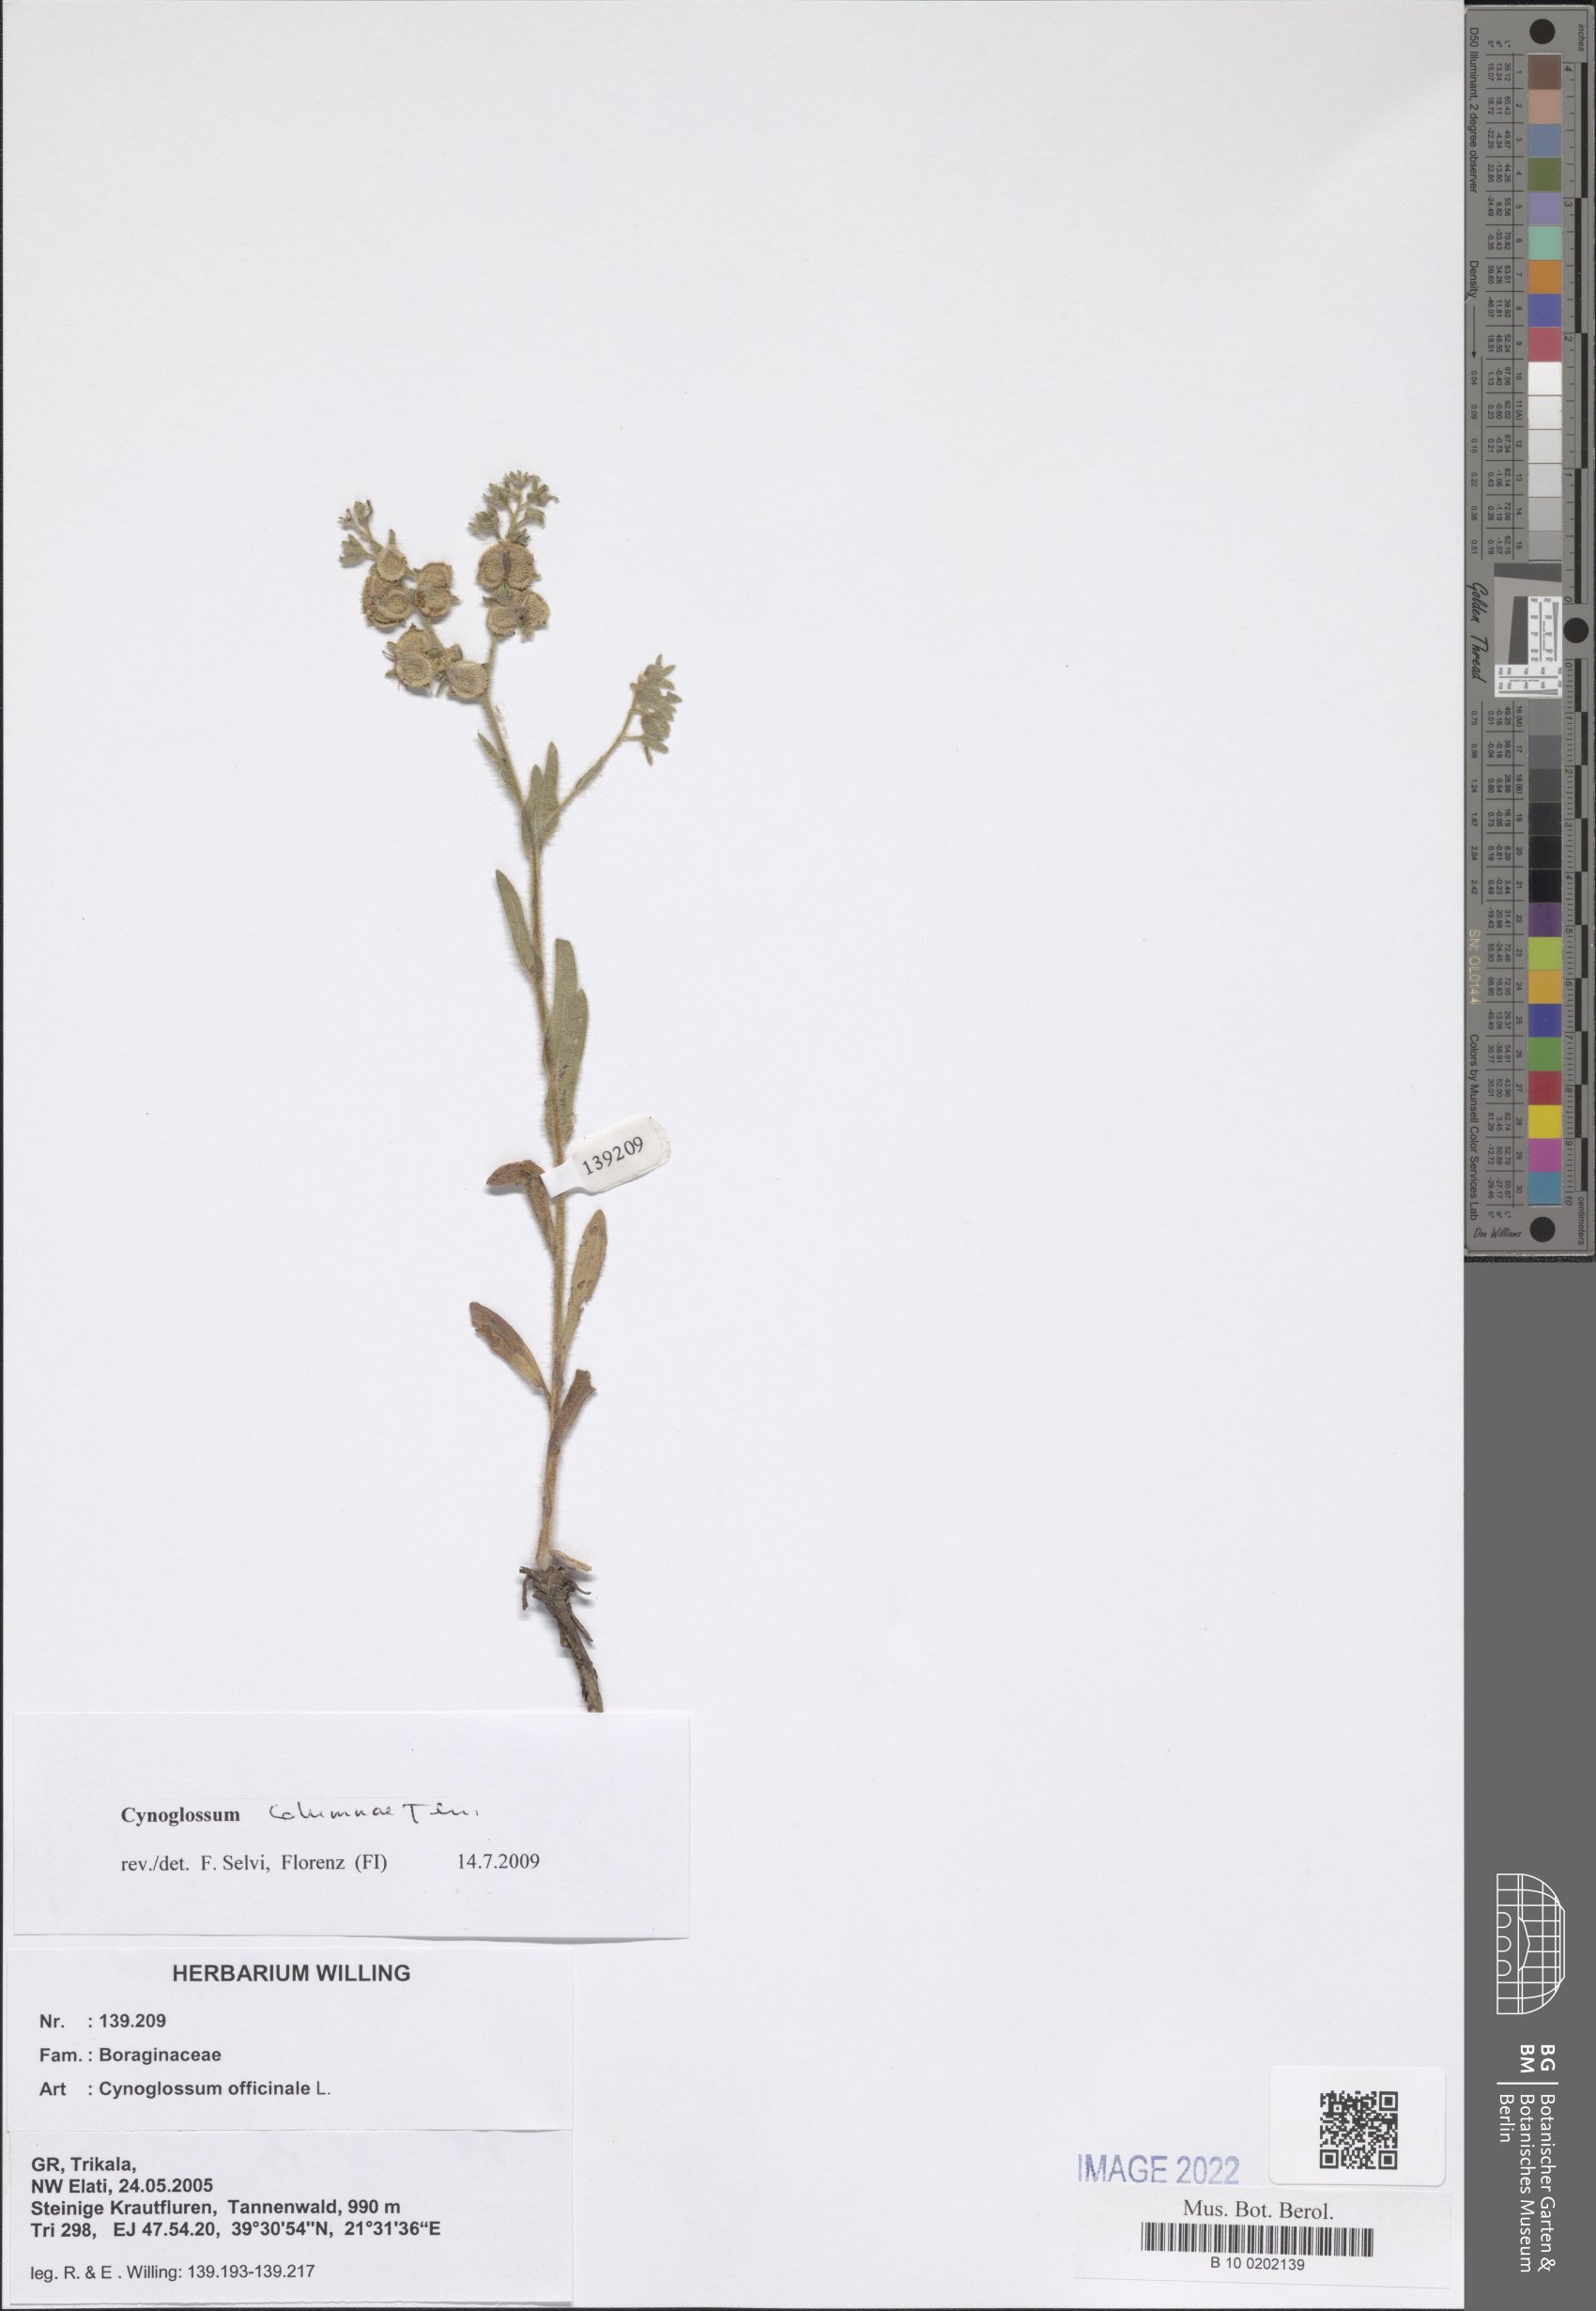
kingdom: Plantae
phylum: Tracheophyta
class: Magnoliopsida
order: Boraginales
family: Boraginaceae
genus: Rindera
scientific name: Rindera columnae
